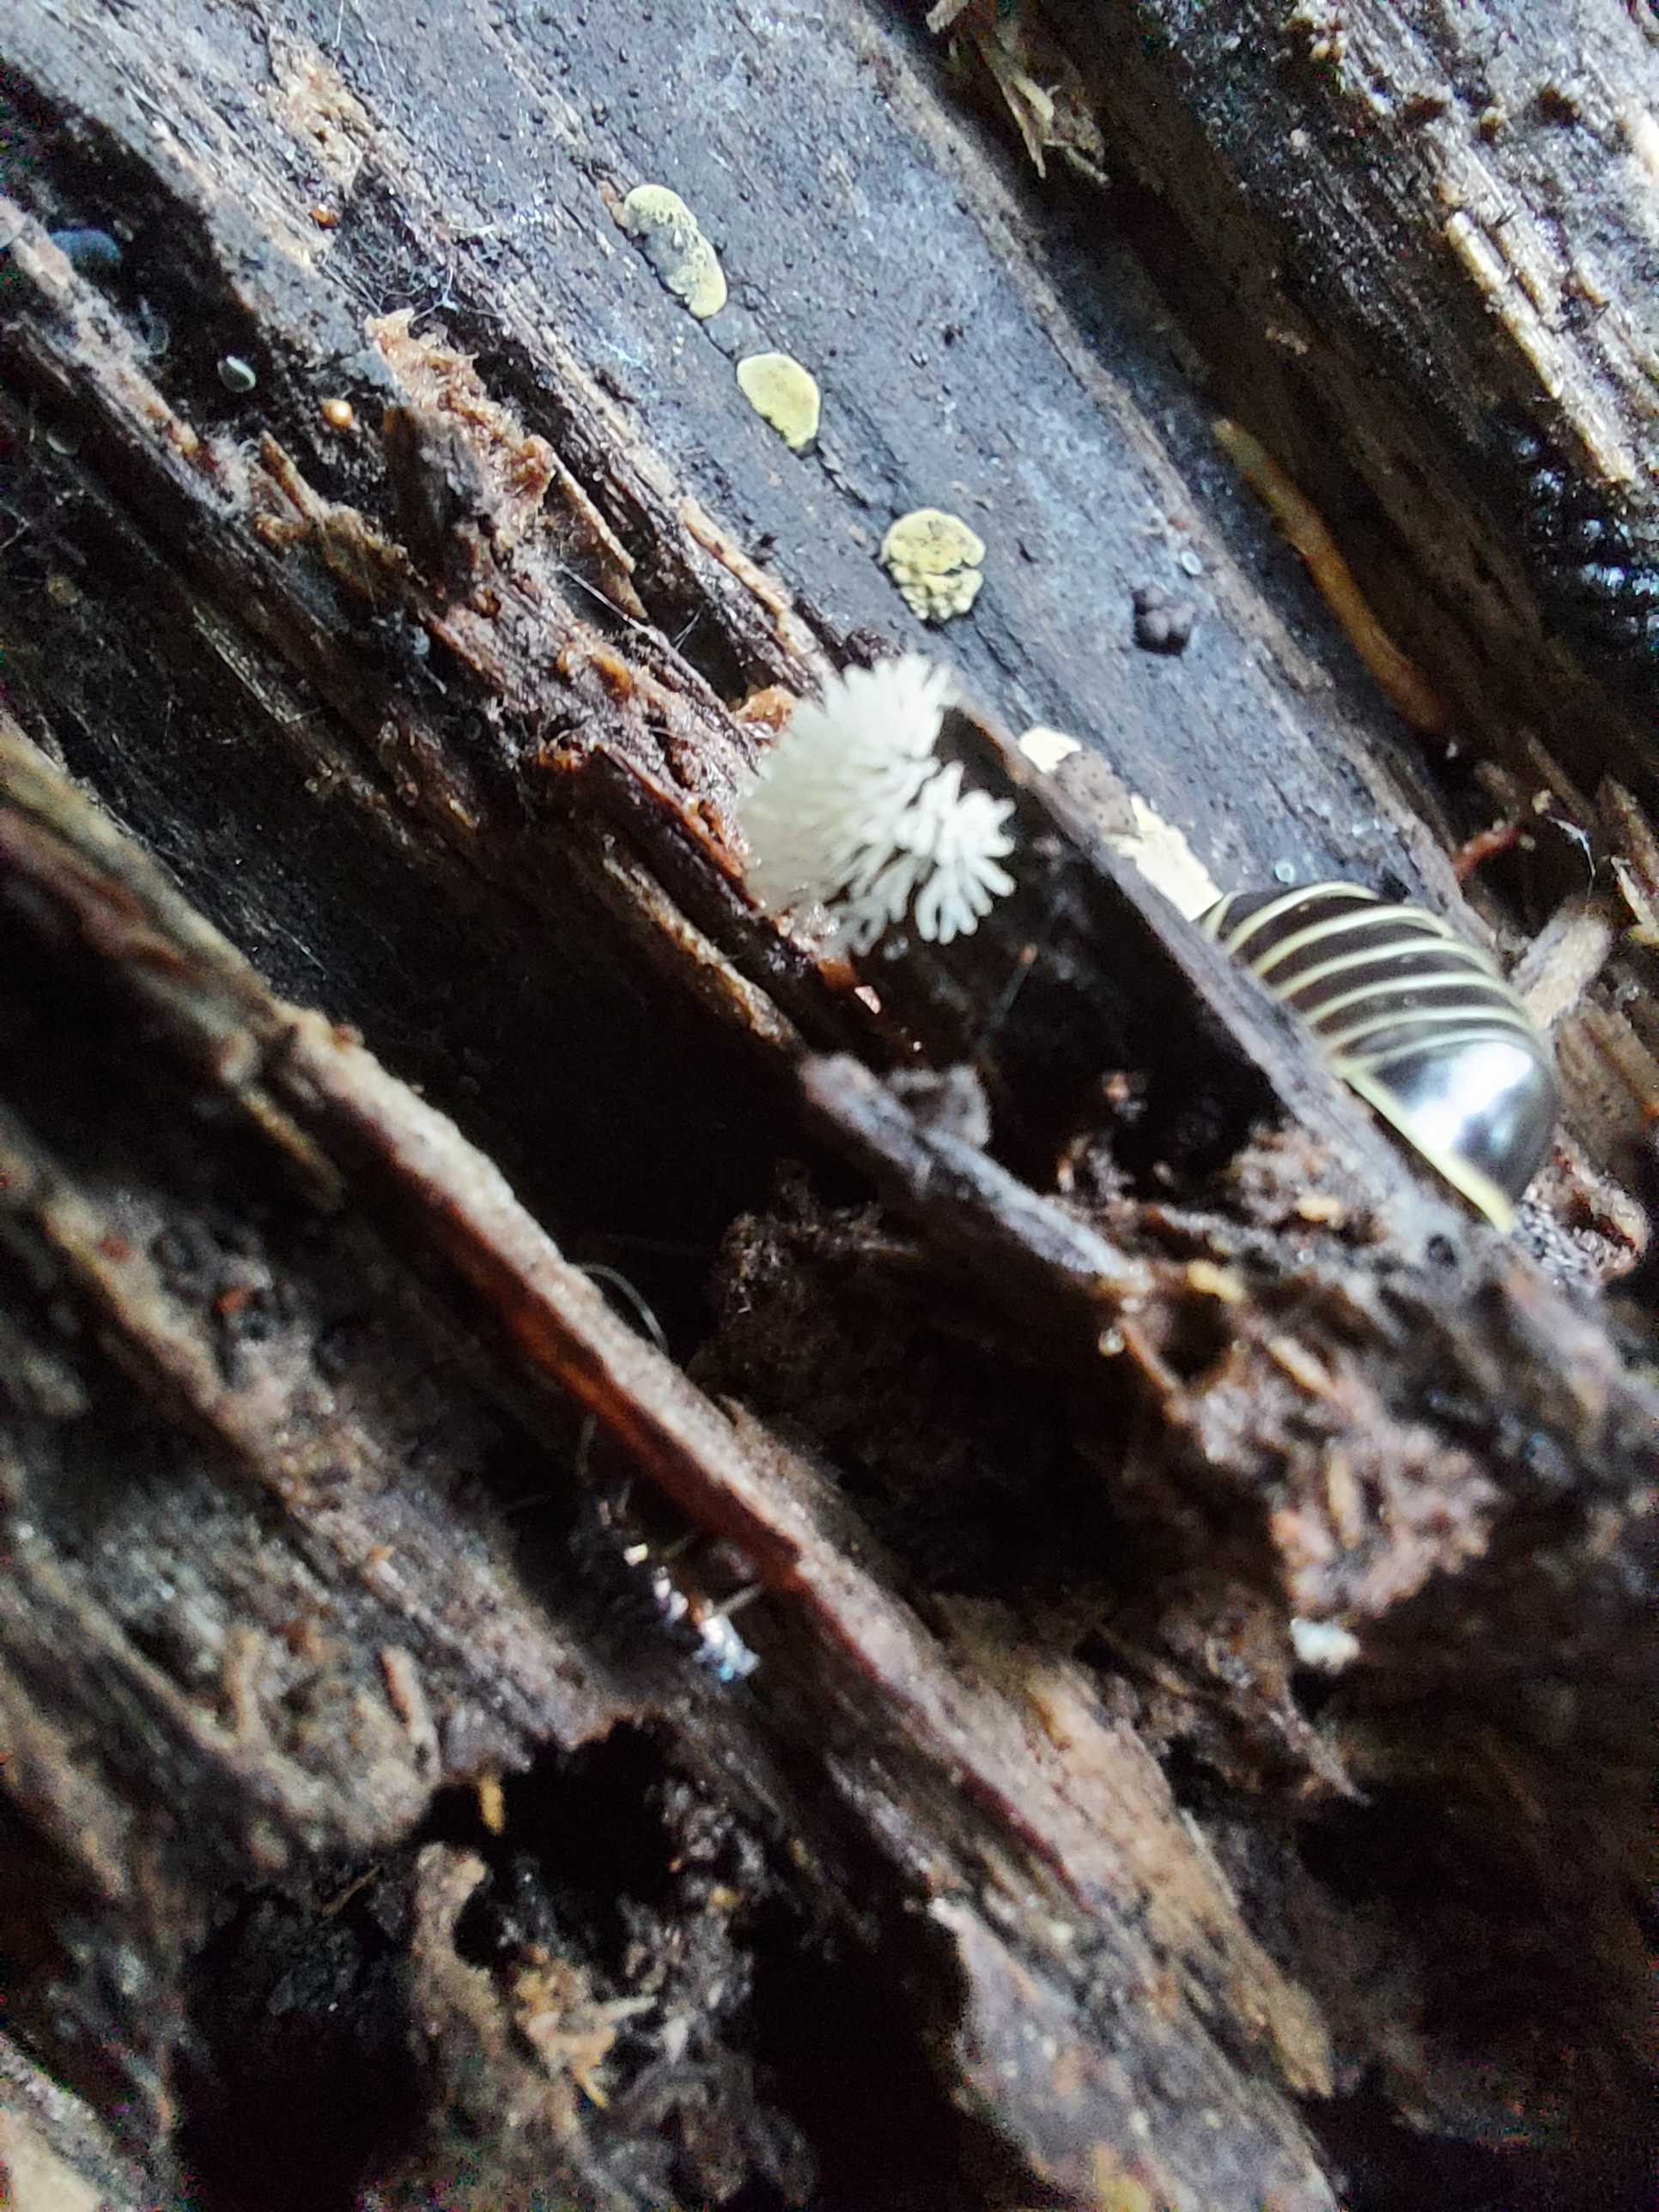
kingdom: Fungi
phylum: Ascomycota
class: Sordariomycetes
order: Xylariales
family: Hypoxylaceae
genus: Jackrogersella
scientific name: Jackrogersella multiformis
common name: foranderlig kulbær
